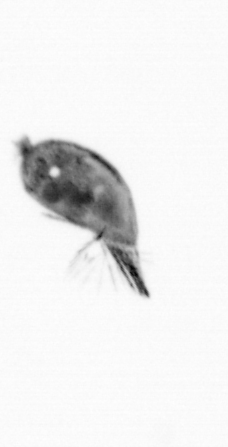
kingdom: Animalia
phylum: Arthropoda
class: Maxillopoda
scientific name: Maxillopoda
